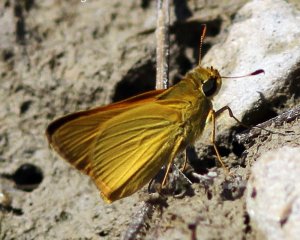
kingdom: Animalia
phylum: Arthropoda
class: Insecta
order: Lepidoptera
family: Hesperiidae
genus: Atrytone
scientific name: Atrytone delaware
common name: Delaware Skipper
